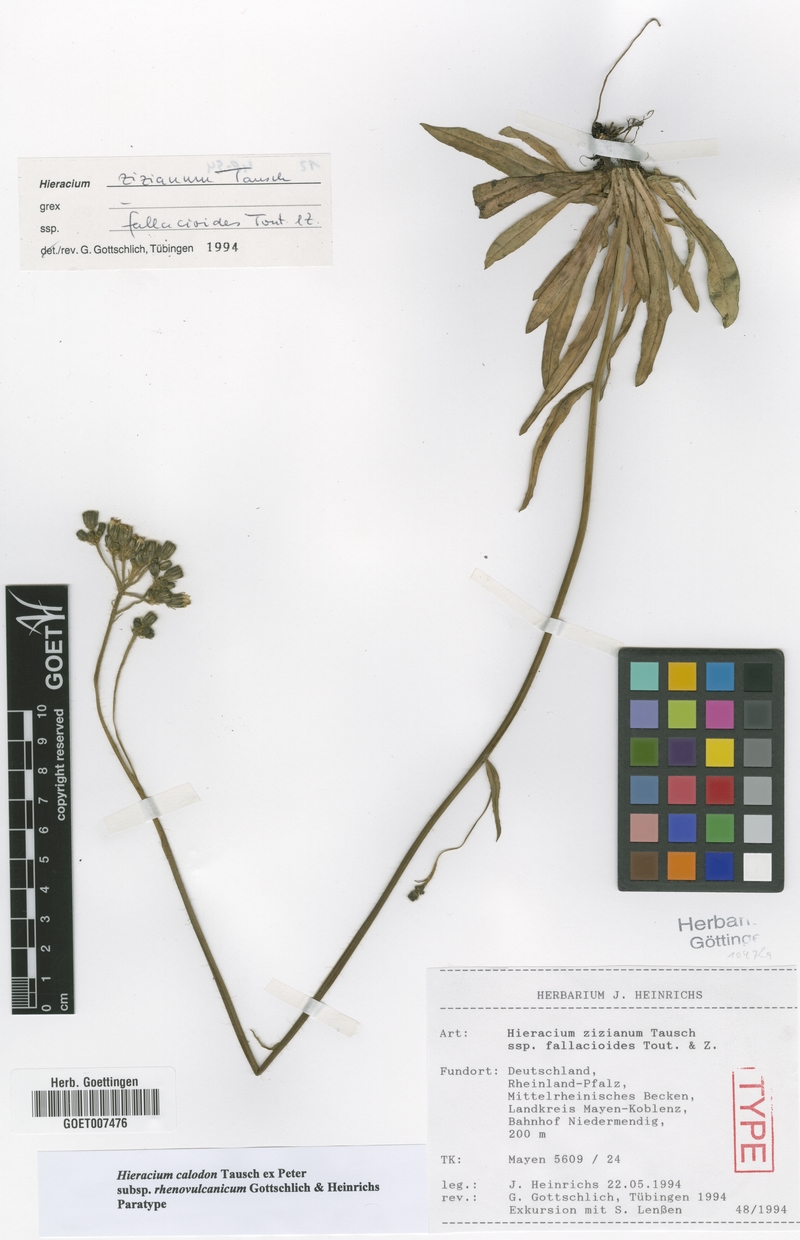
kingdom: Plantae
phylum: Tracheophyta
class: Magnoliopsida
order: Asterales
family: Asteraceae
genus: Pilosella
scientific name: Pilosella calodon
